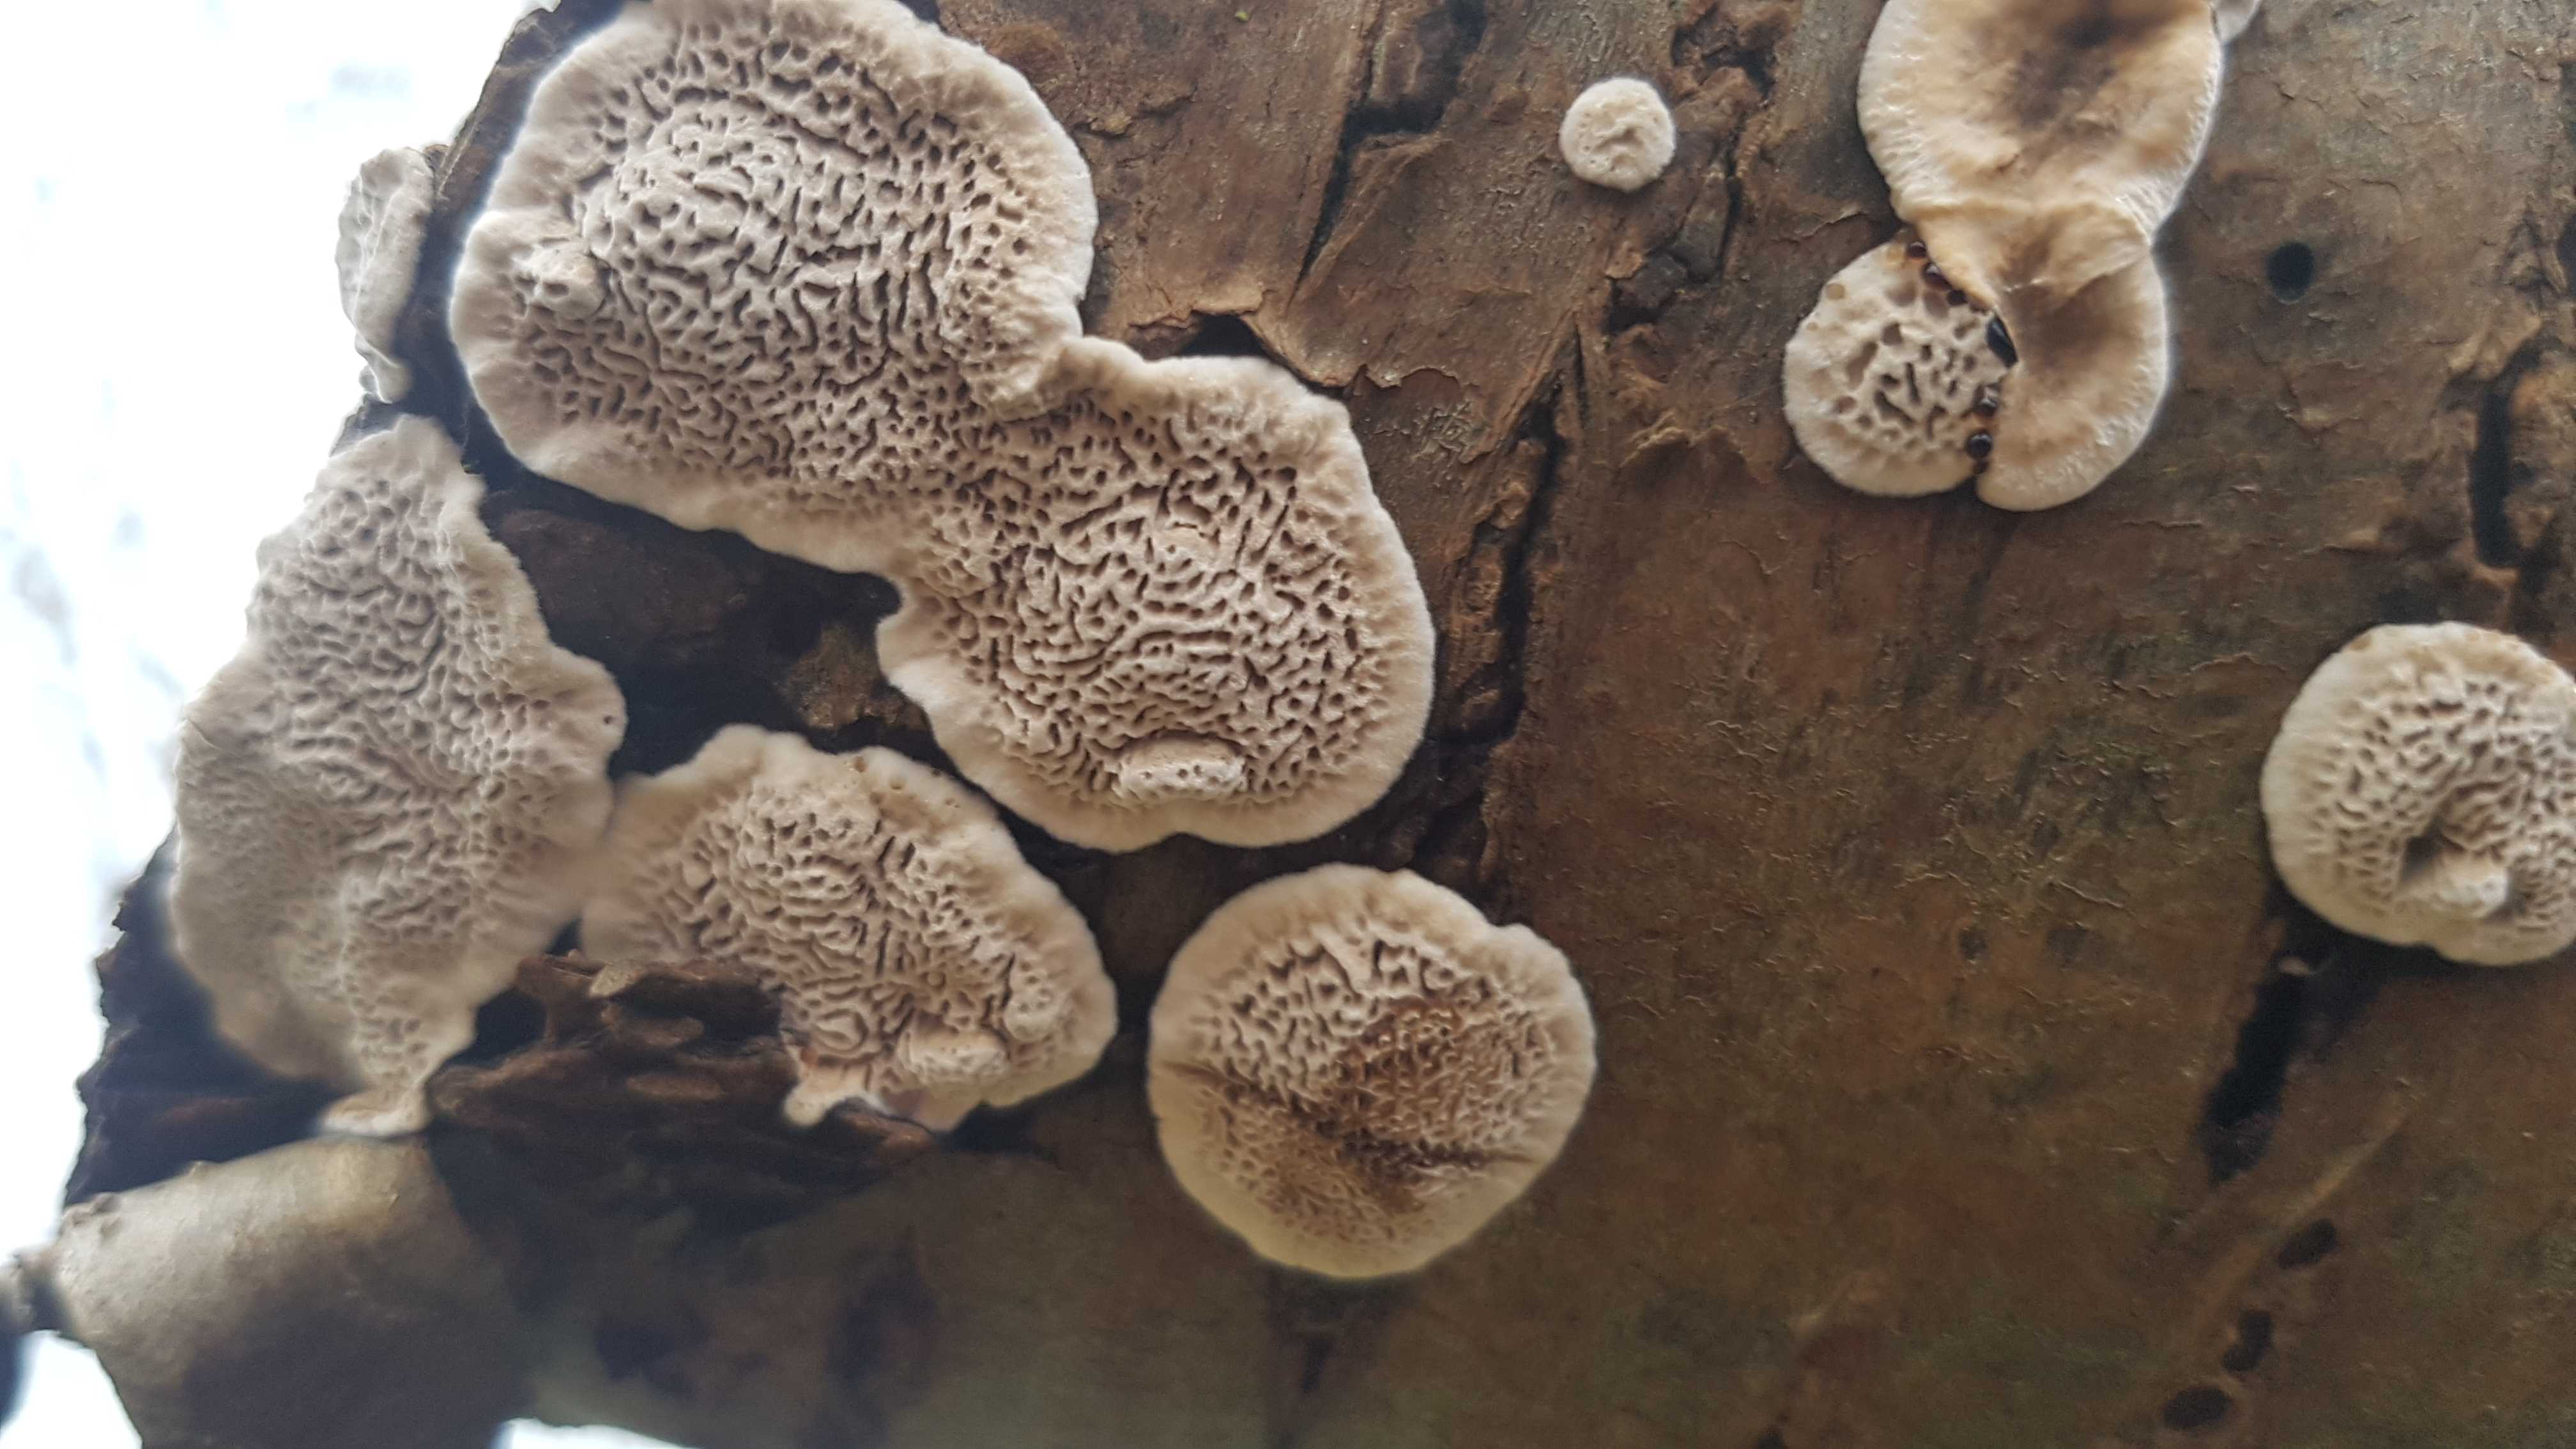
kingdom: Fungi
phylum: Basidiomycota
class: Agaricomycetes
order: Polyporales
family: Polyporaceae
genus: Podofomes
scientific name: Podofomes mollis
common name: blød begporesvamp
